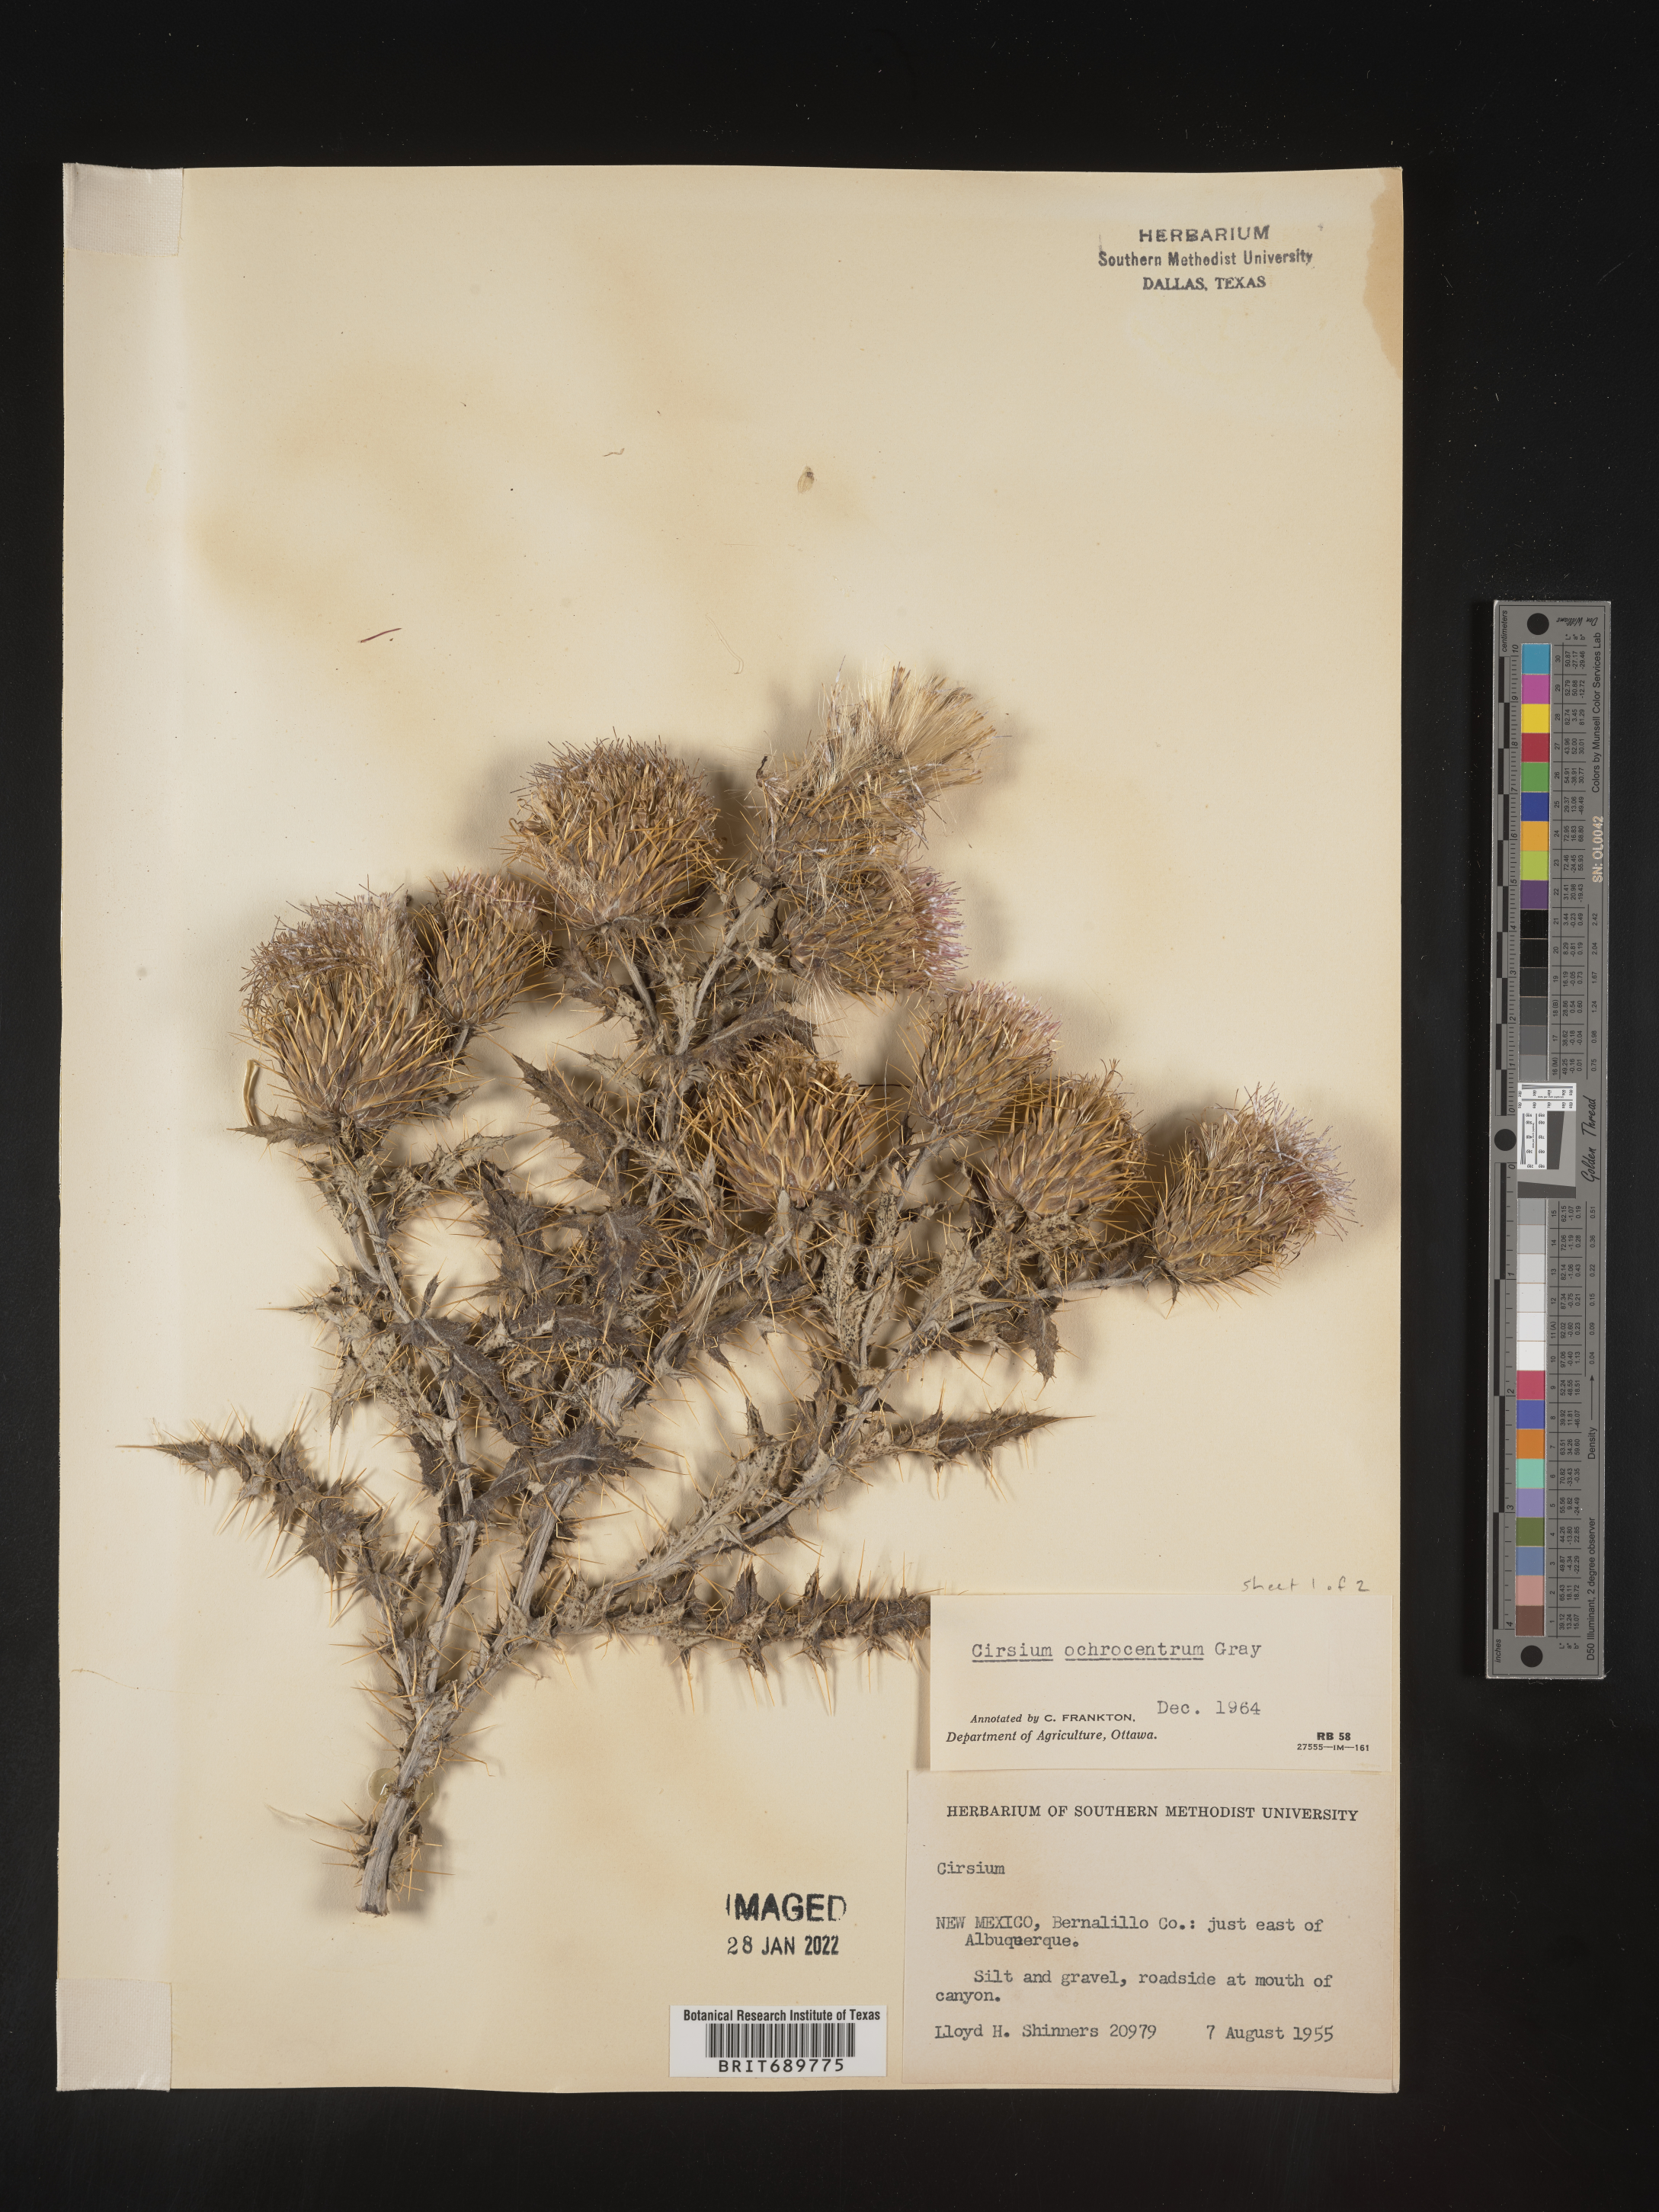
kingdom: Plantae
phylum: Tracheophyta
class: Magnoliopsida
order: Asterales
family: Asteraceae
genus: Cirsium
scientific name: Cirsium ochrocentrum
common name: Yellow-spine thistle
